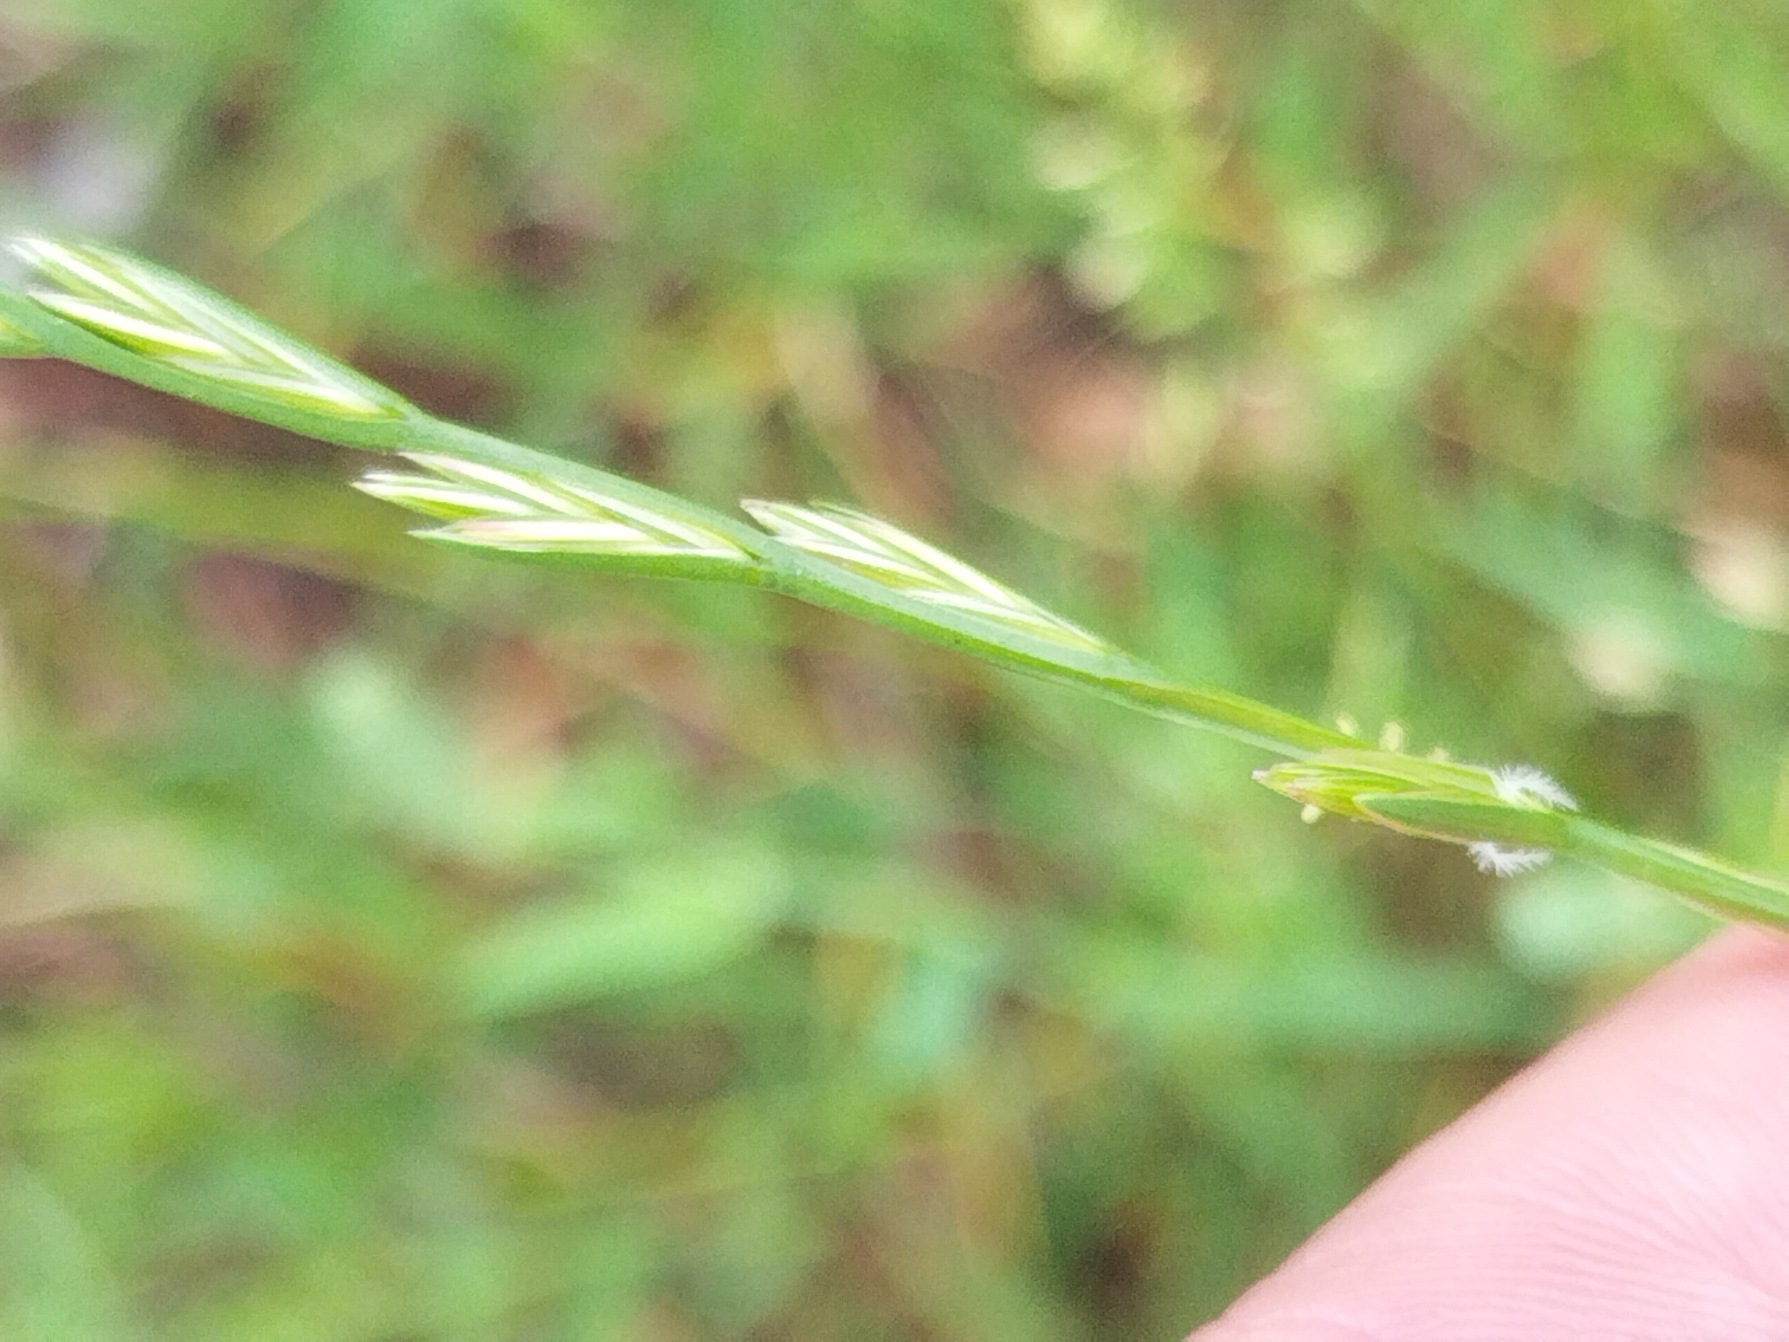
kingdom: Plantae
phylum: Tracheophyta
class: Liliopsida
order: Poales
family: Poaceae
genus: Lolium
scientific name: Lolium perenne
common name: Almindelig rajgræs
